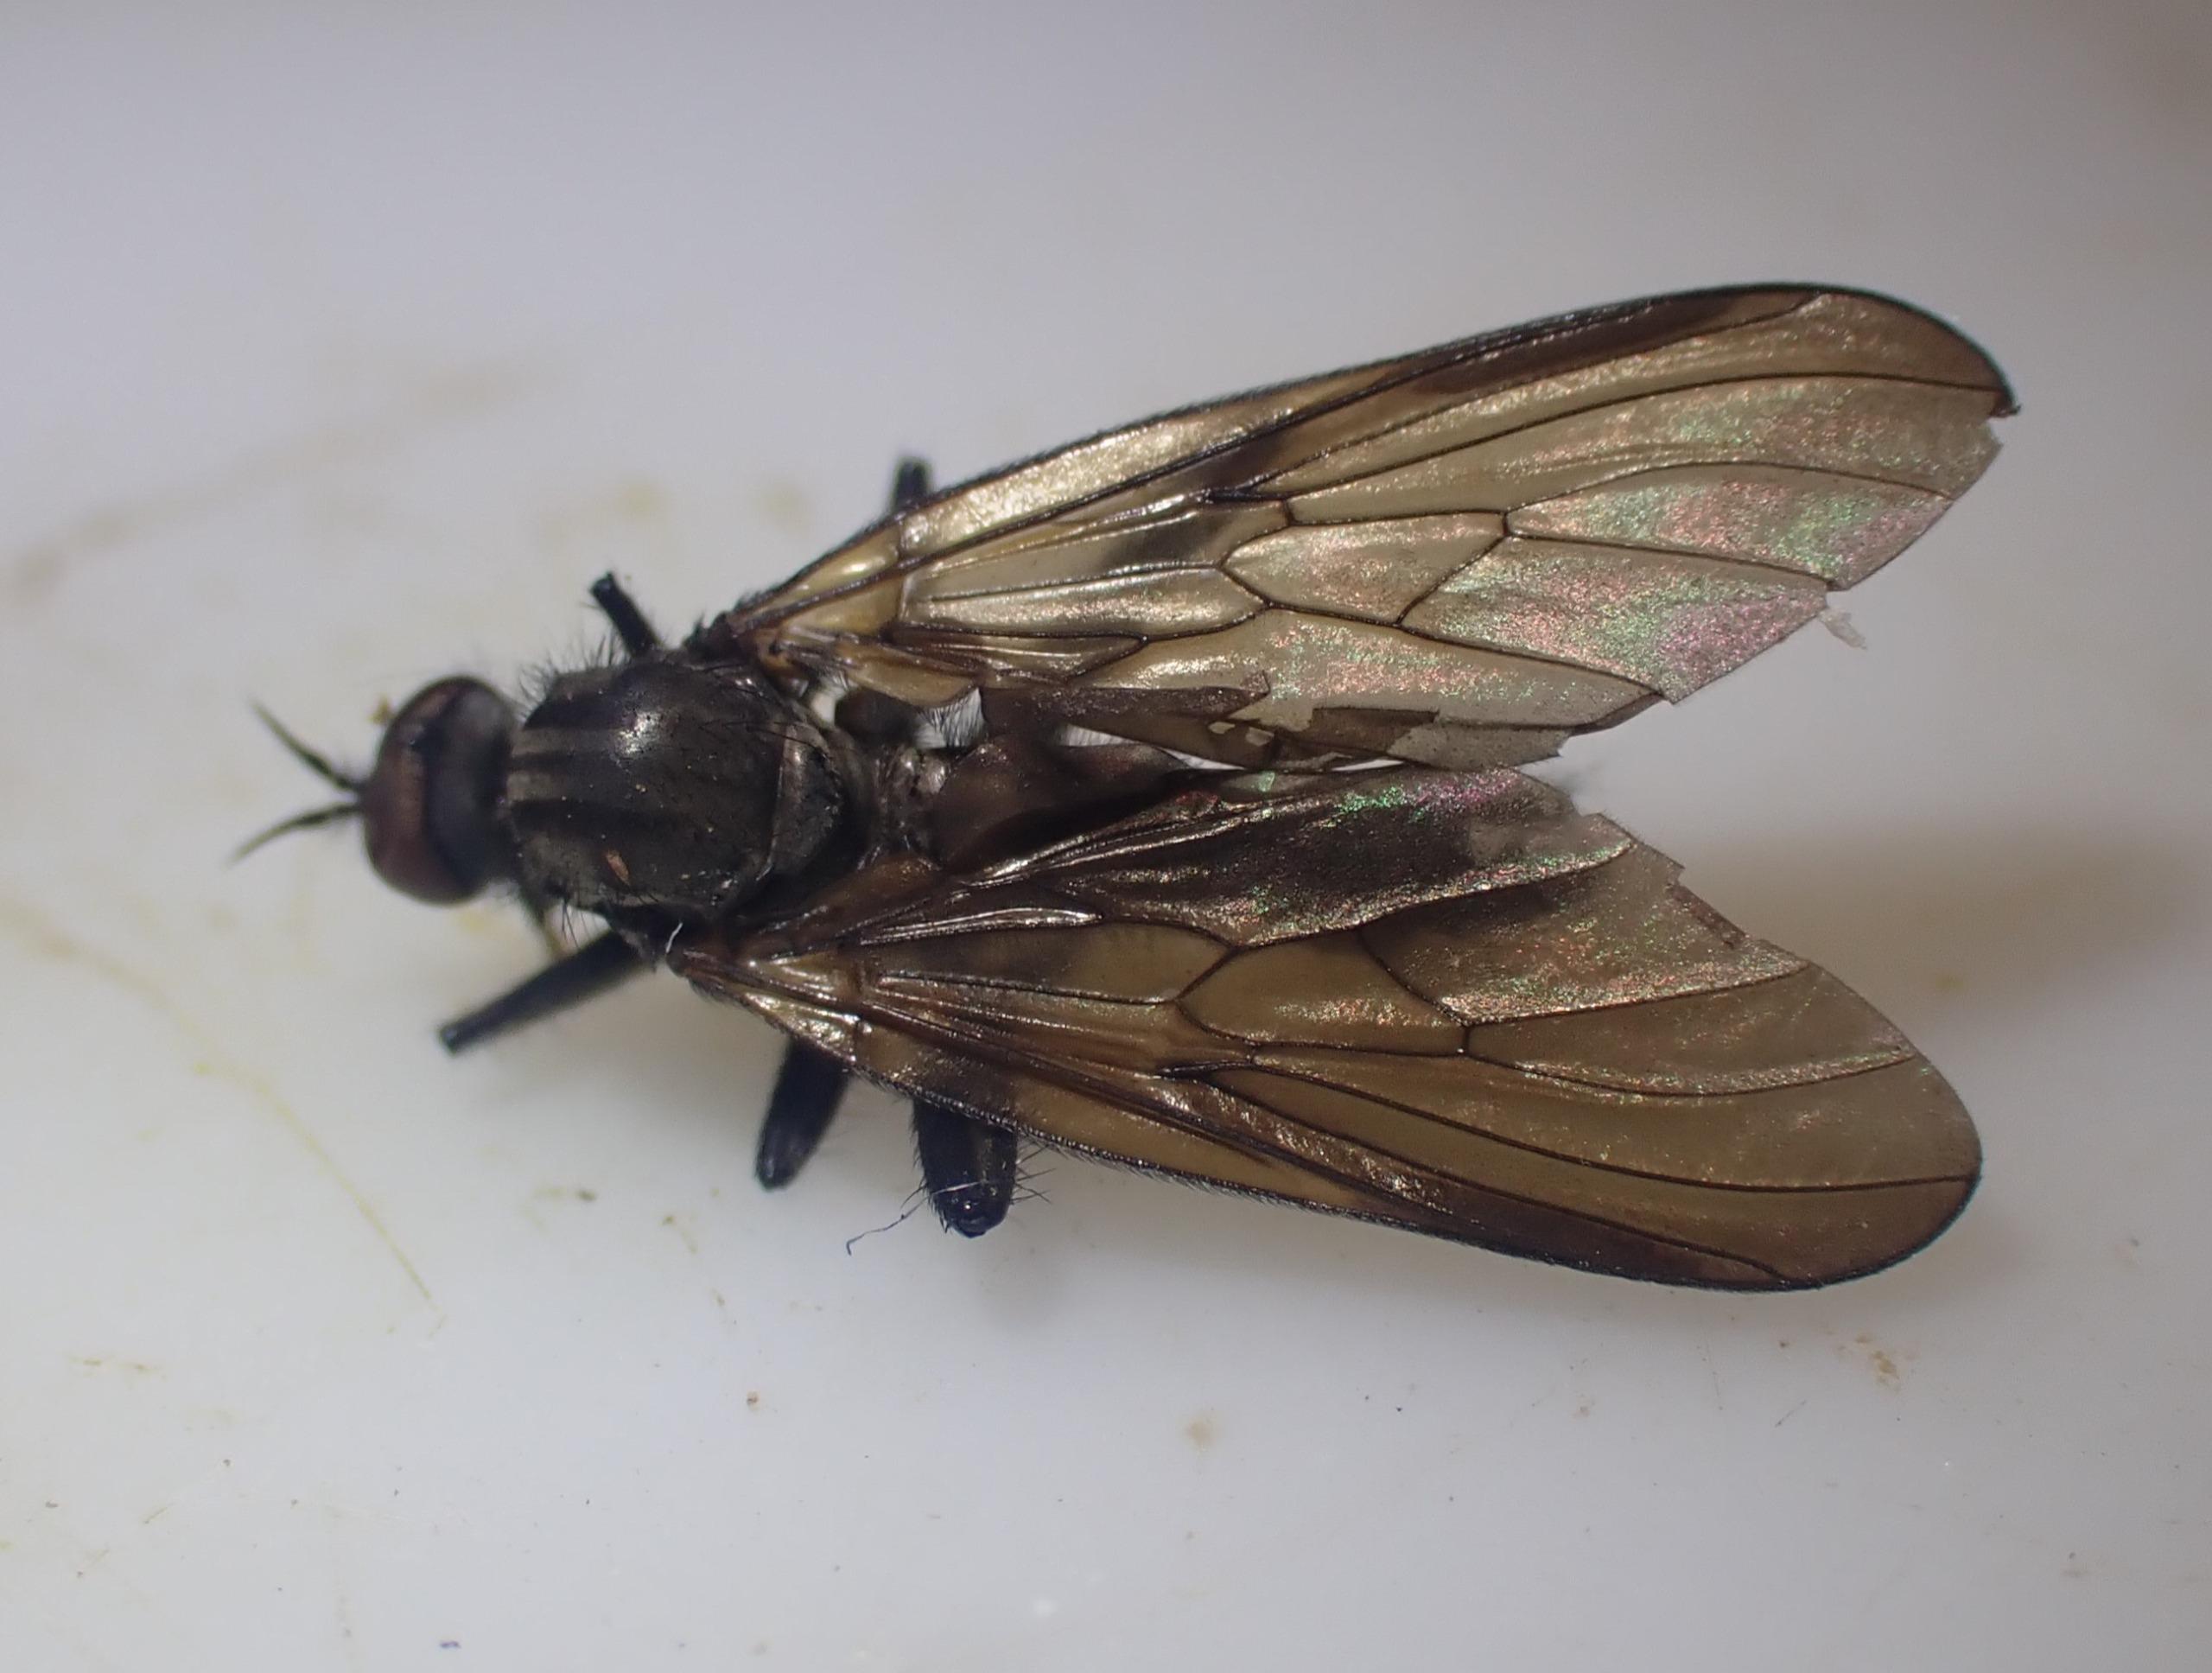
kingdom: Animalia
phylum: Arthropoda
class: Insecta
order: Diptera
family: Empididae
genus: Rhamphomyia
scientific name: Rhamphomyia spinipes
